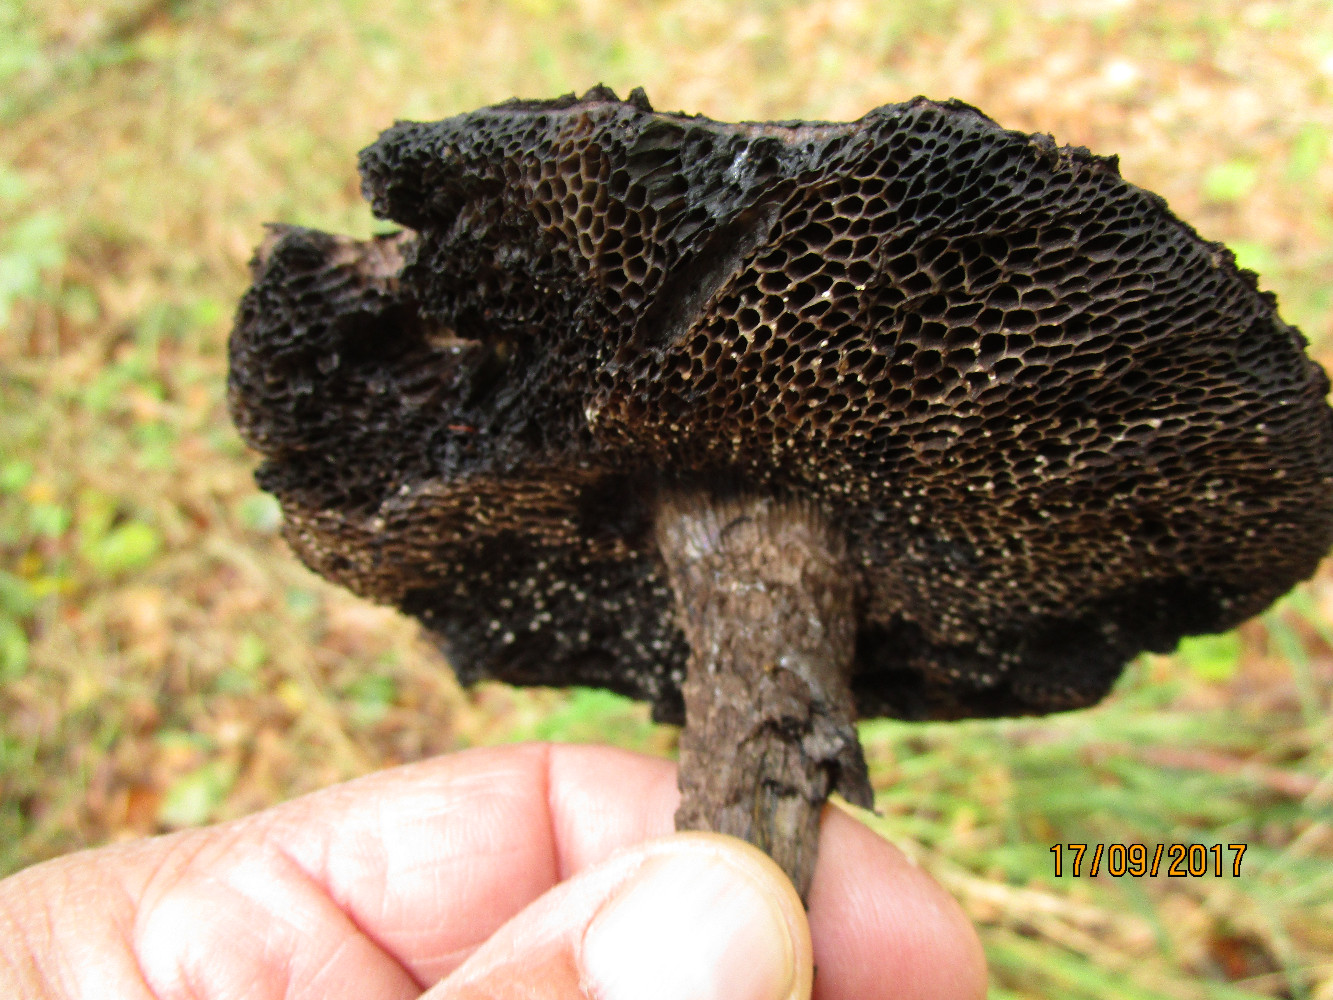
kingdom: Fungi
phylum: Basidiomycota
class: Agaricomycetes
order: Boletales
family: Boletaceae
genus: Strobilomyces
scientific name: Strobilomyces strobilaceus
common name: koglerørhat
